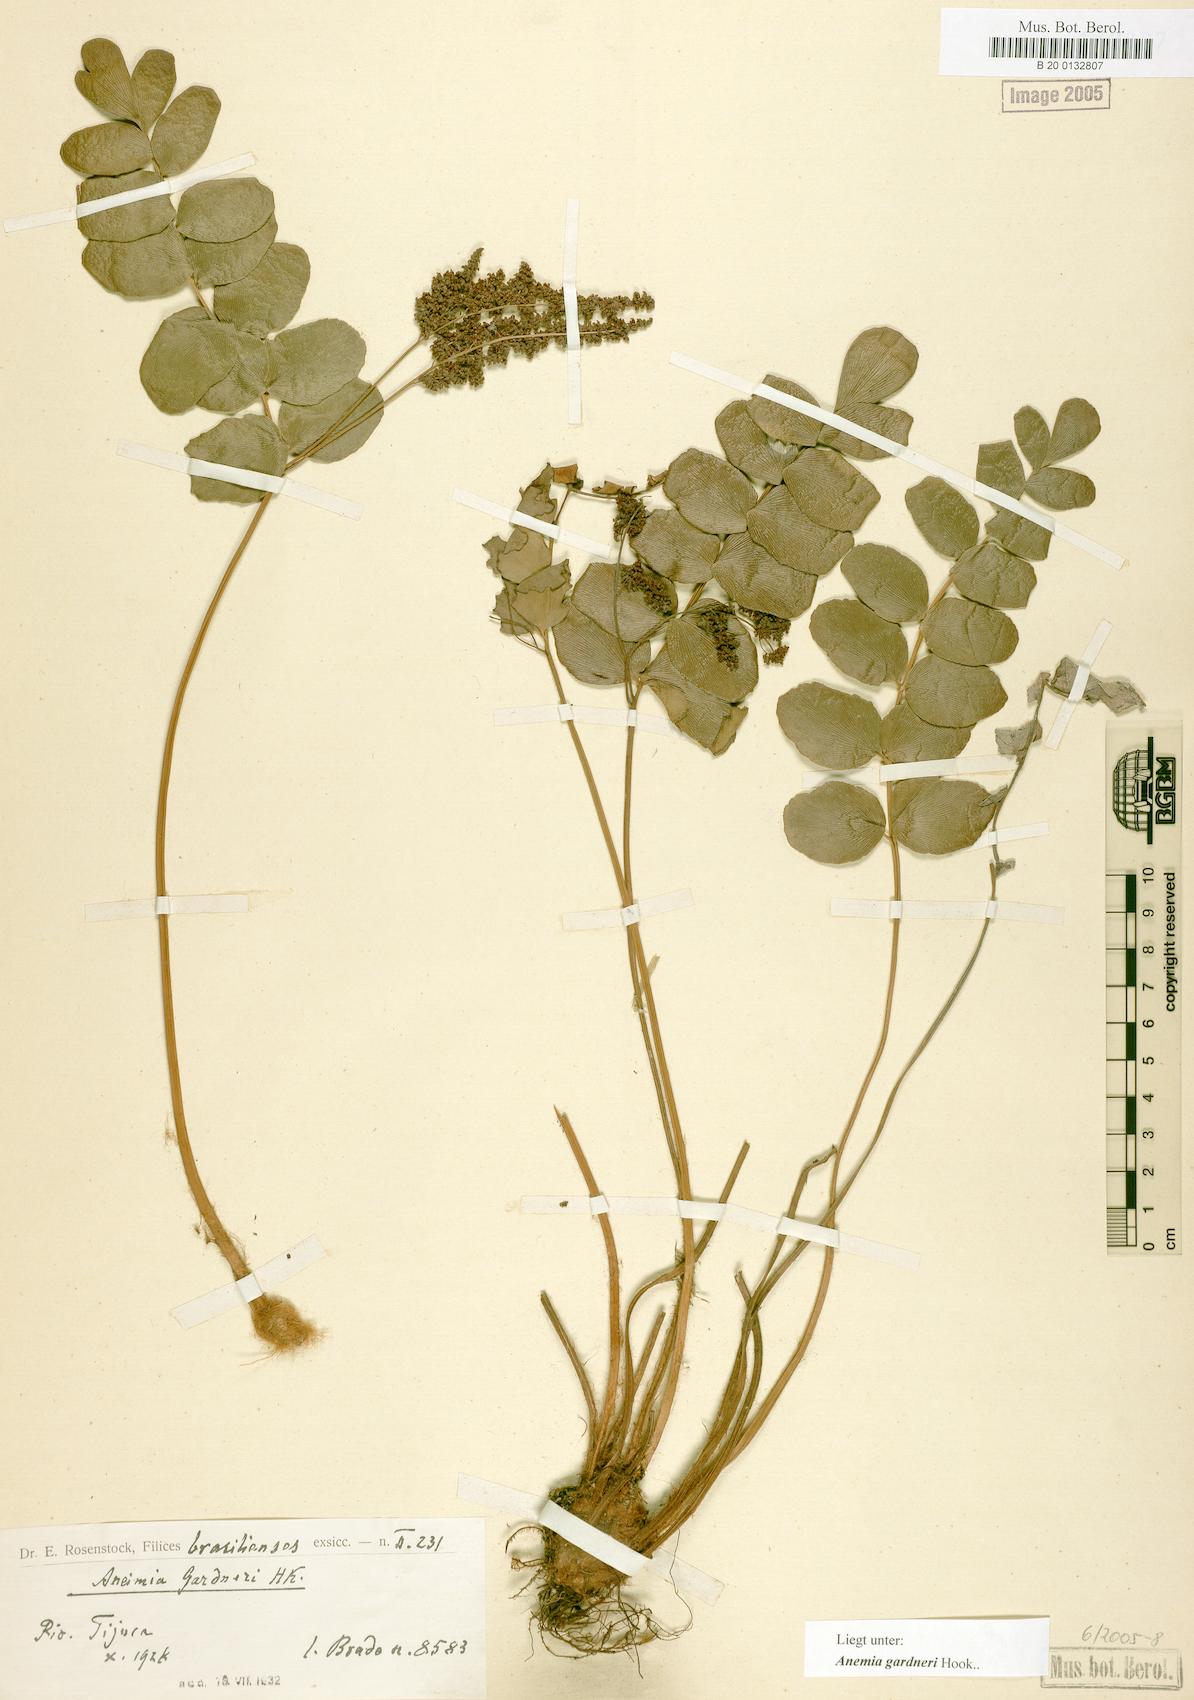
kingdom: Plantae
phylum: Tracheophyta
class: Polypodiopsida
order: Schizaeales
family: Anemiaceae
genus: Anemia
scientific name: Anemia gardneri
